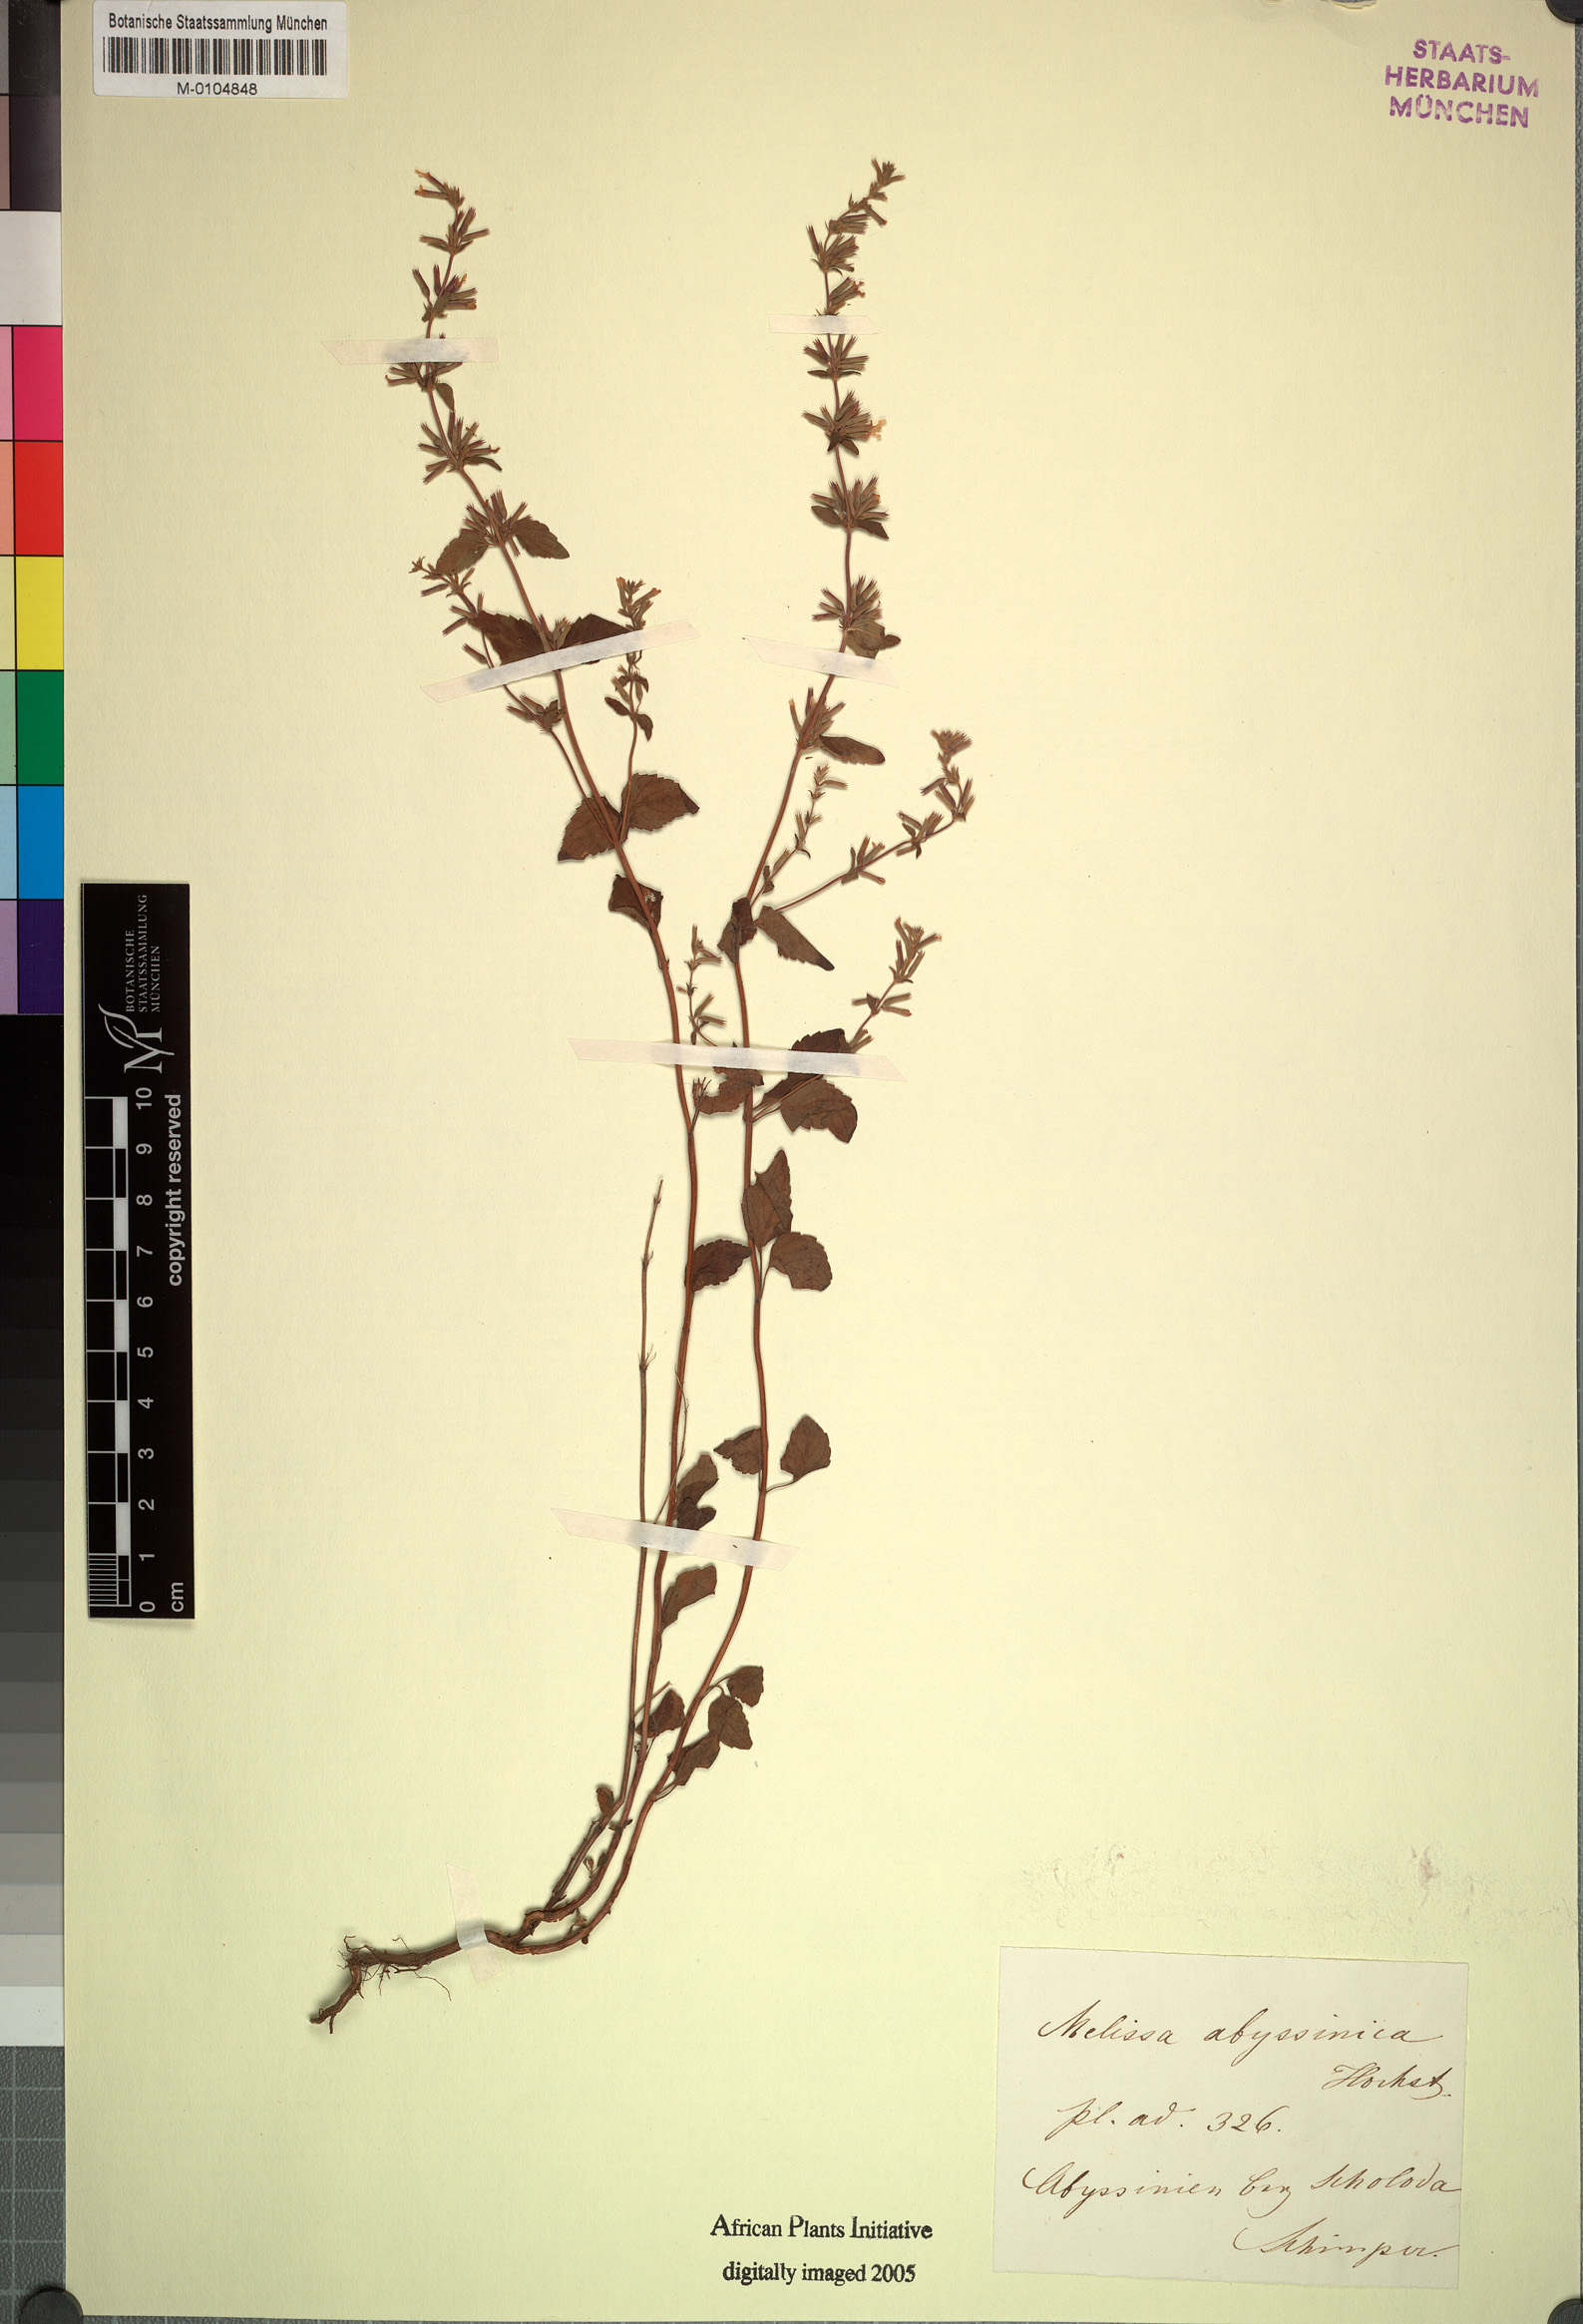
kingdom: Plantae
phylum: Tracheophyta
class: Magnoliopsida
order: Lamiales
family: Lamiaceae
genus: Clinopodium
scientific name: Clinopodium abyssinicum
